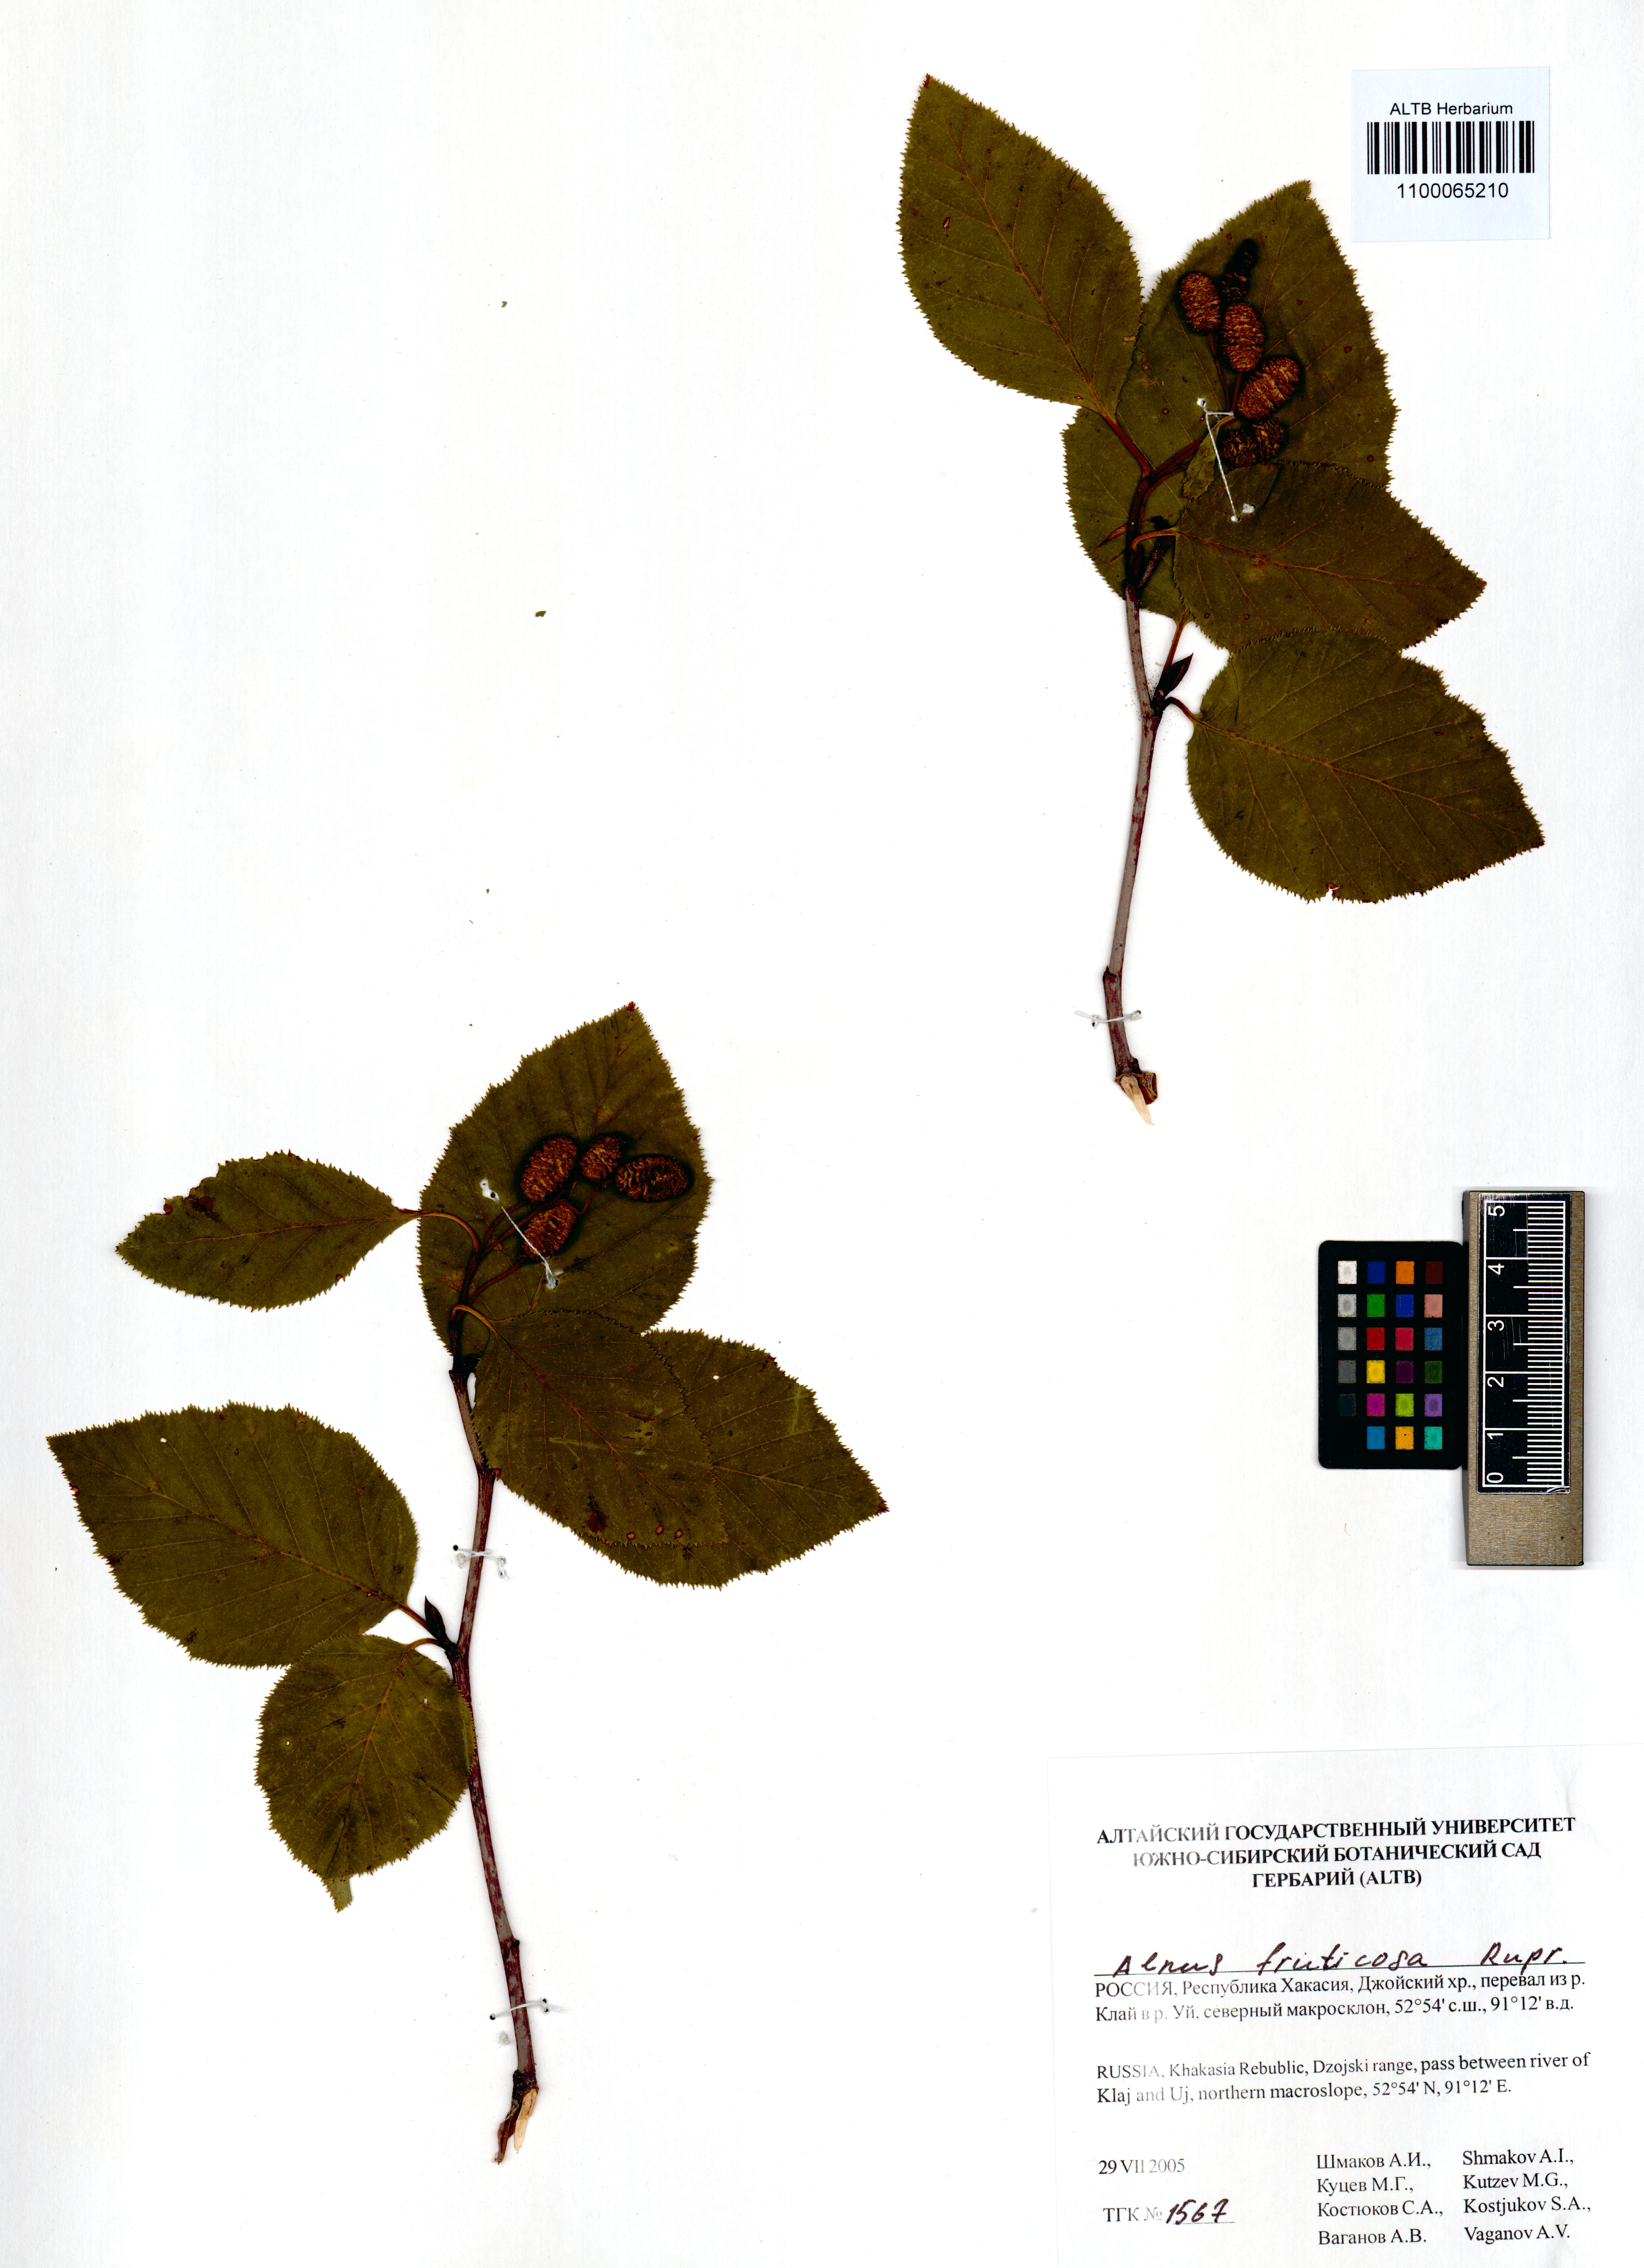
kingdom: Plantae
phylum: Tracheophyta
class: Magnoliopsida
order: Fagales
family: Betulaceae
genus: Alnus
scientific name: Alnus alnobetula
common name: Green alder
